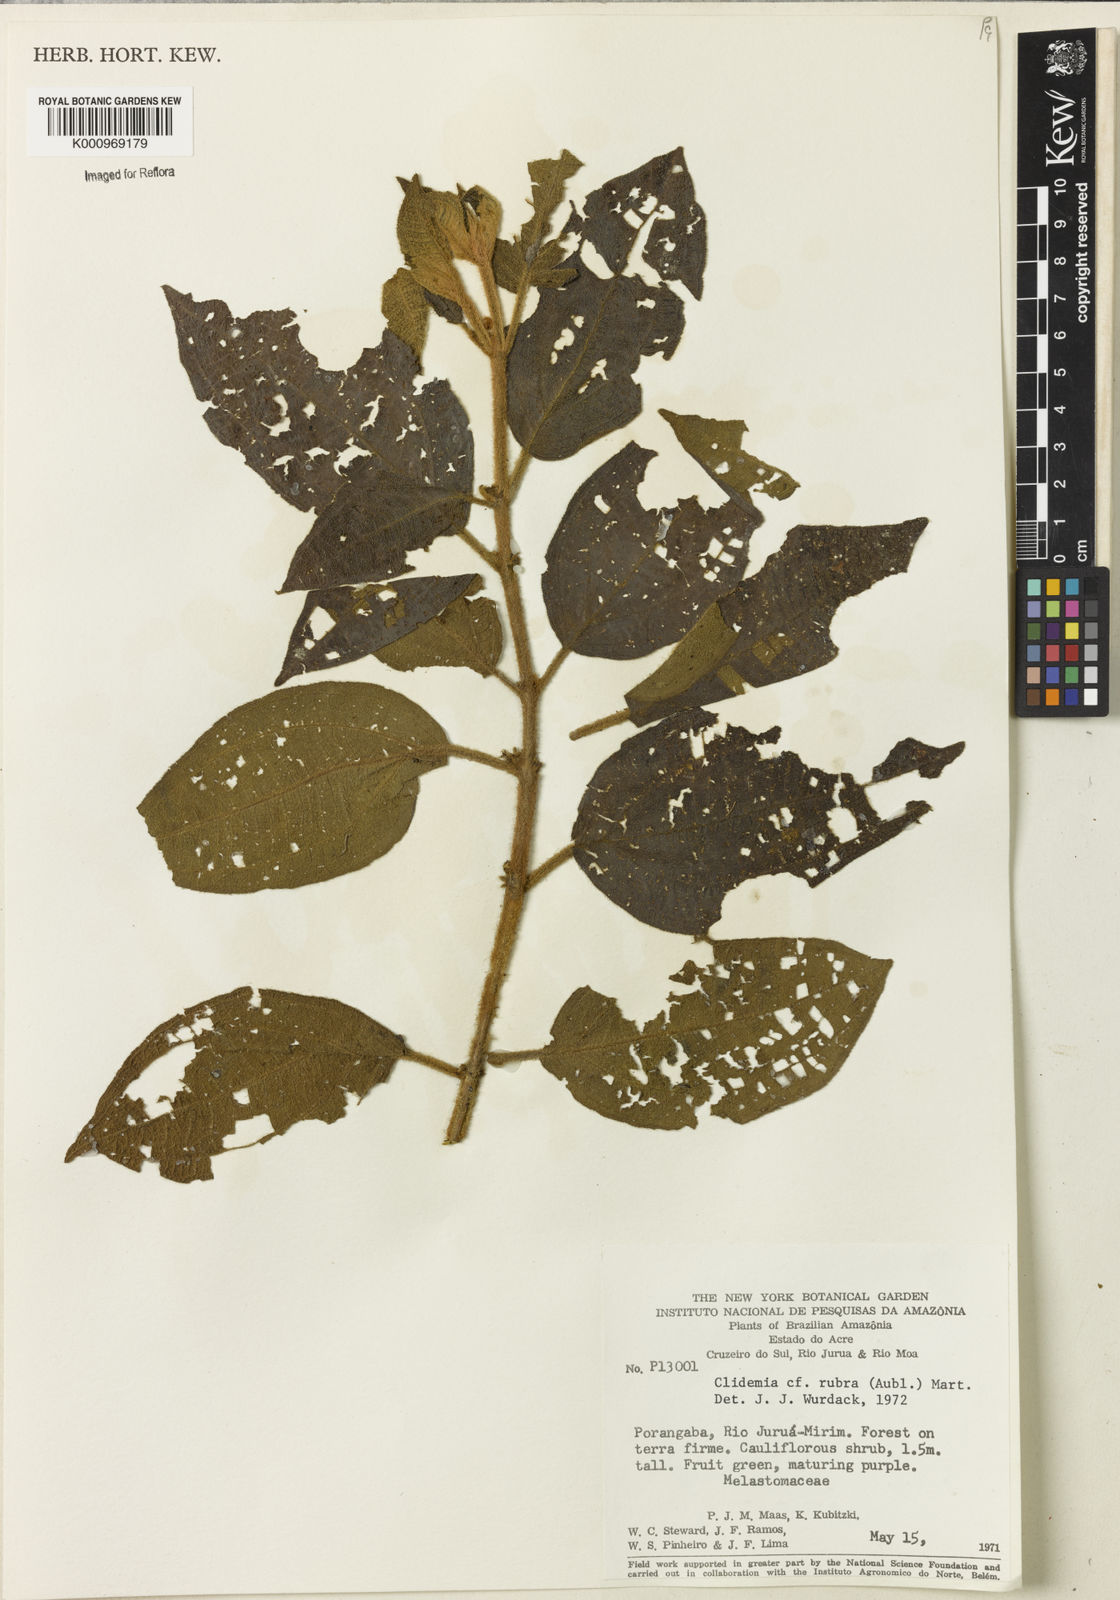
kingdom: Plantae
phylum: Tracheophyta
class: Magnoliopsida
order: Myrtales
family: Melastomataceae
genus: Miconia
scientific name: Miconia rubra
